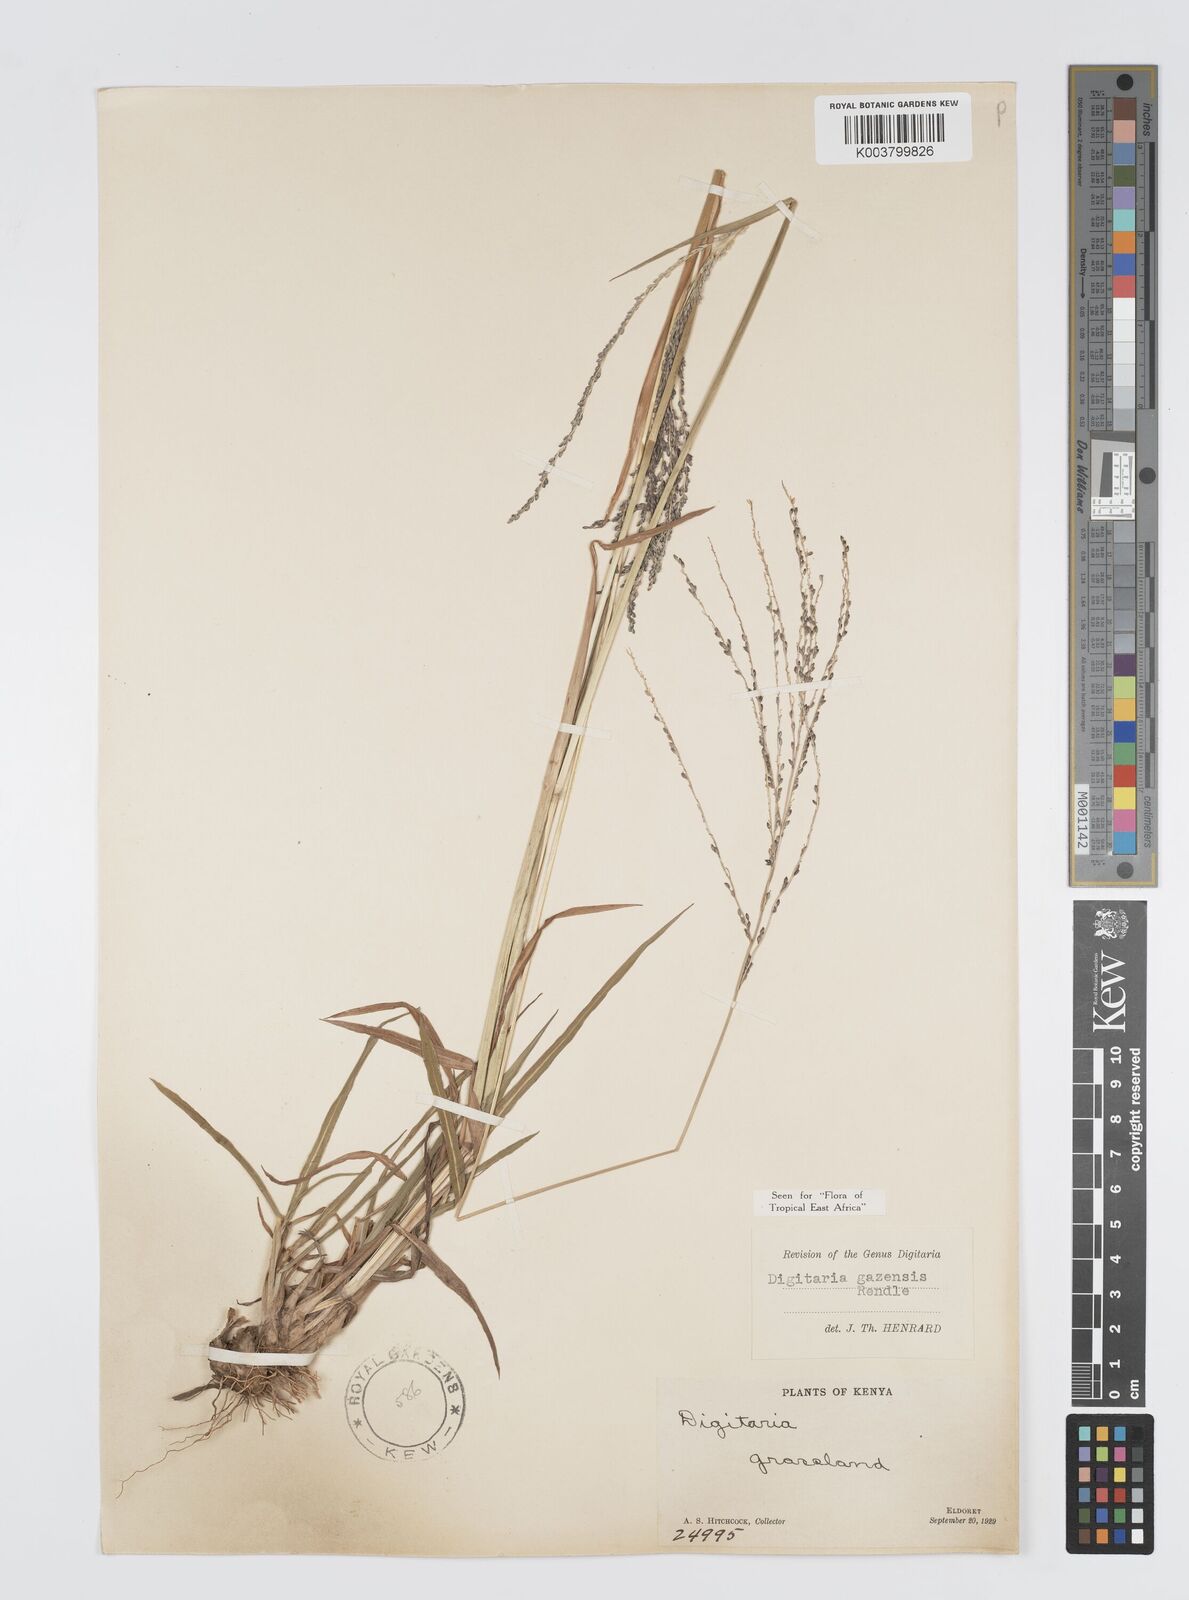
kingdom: Plantae
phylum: Tracheophyta
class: Liliopsida
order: Poales
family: Poaceae
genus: Digitaria
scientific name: Digitaria gazensis
